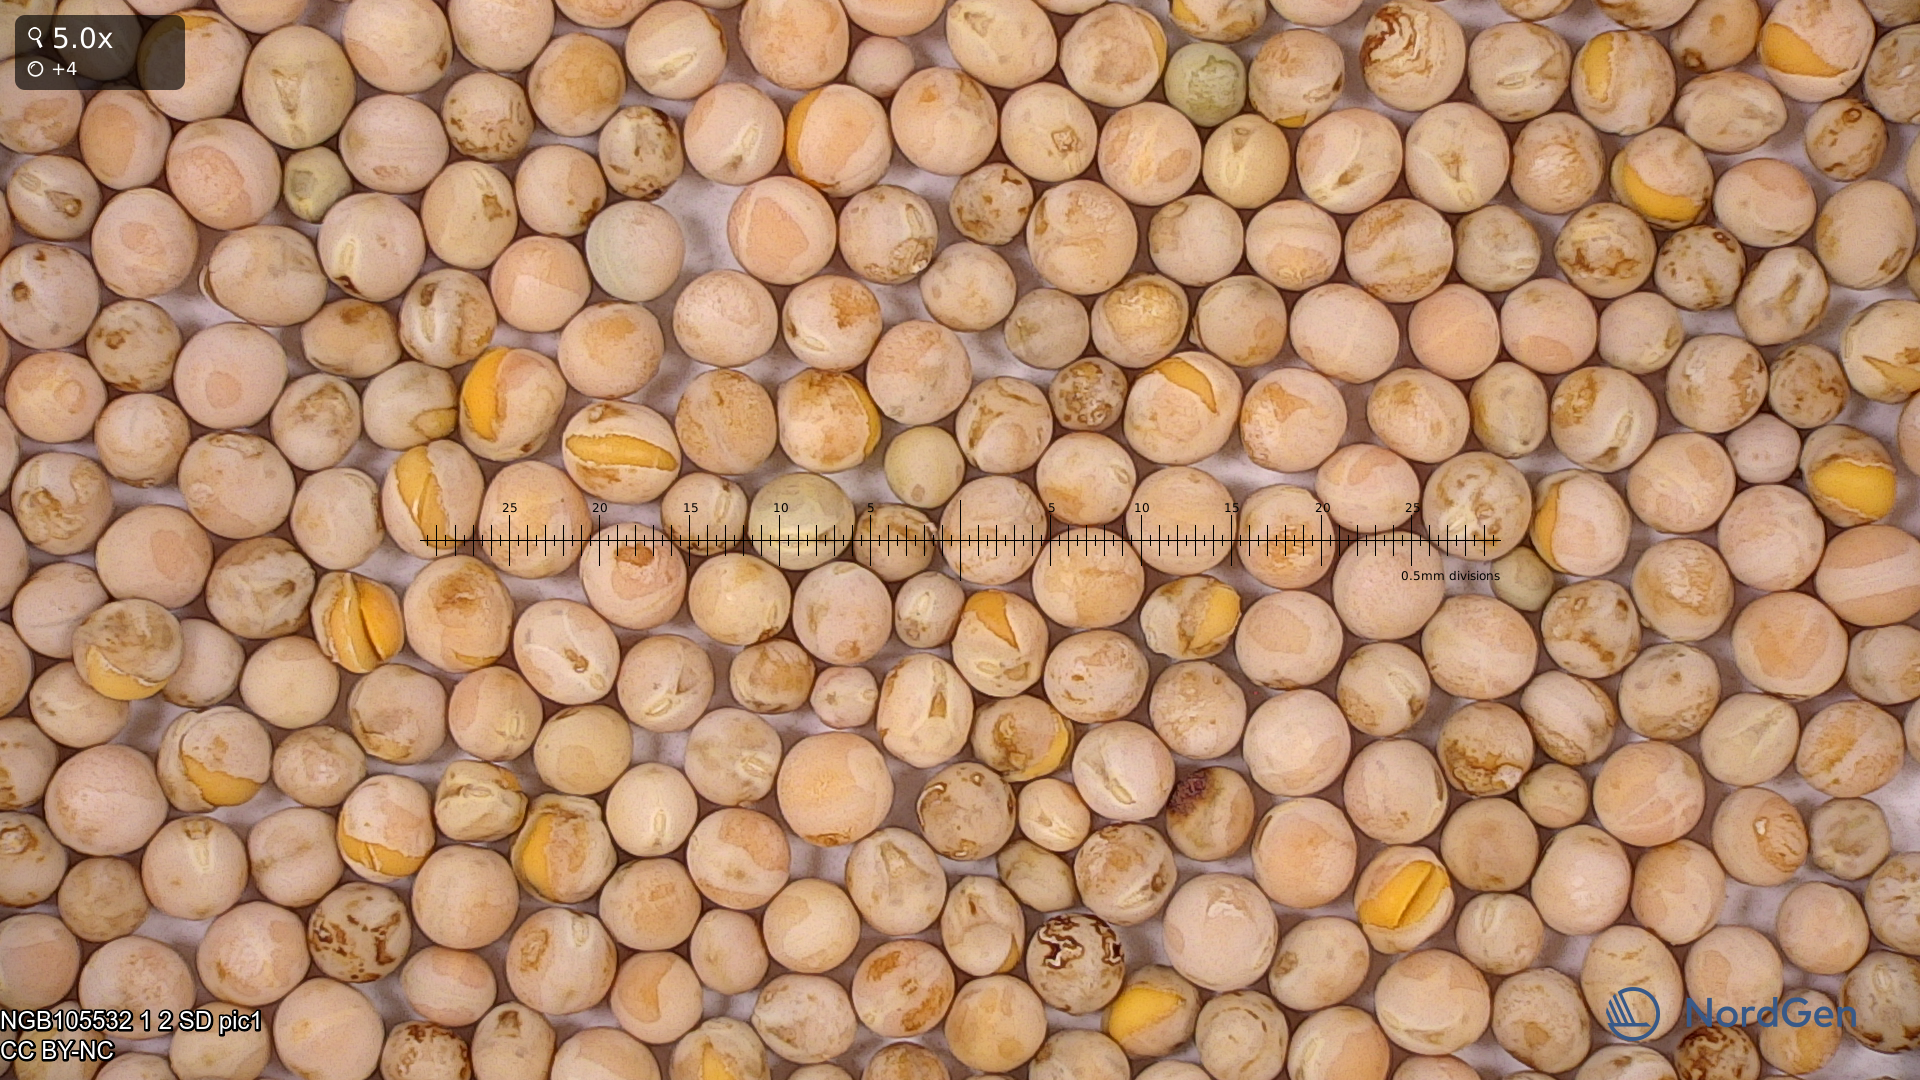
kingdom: Plantae
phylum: Tracheophyta
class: Magnoliopsida
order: Fabales
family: Fabaceae
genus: Lathyrus
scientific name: Lathyrus oleraceus
